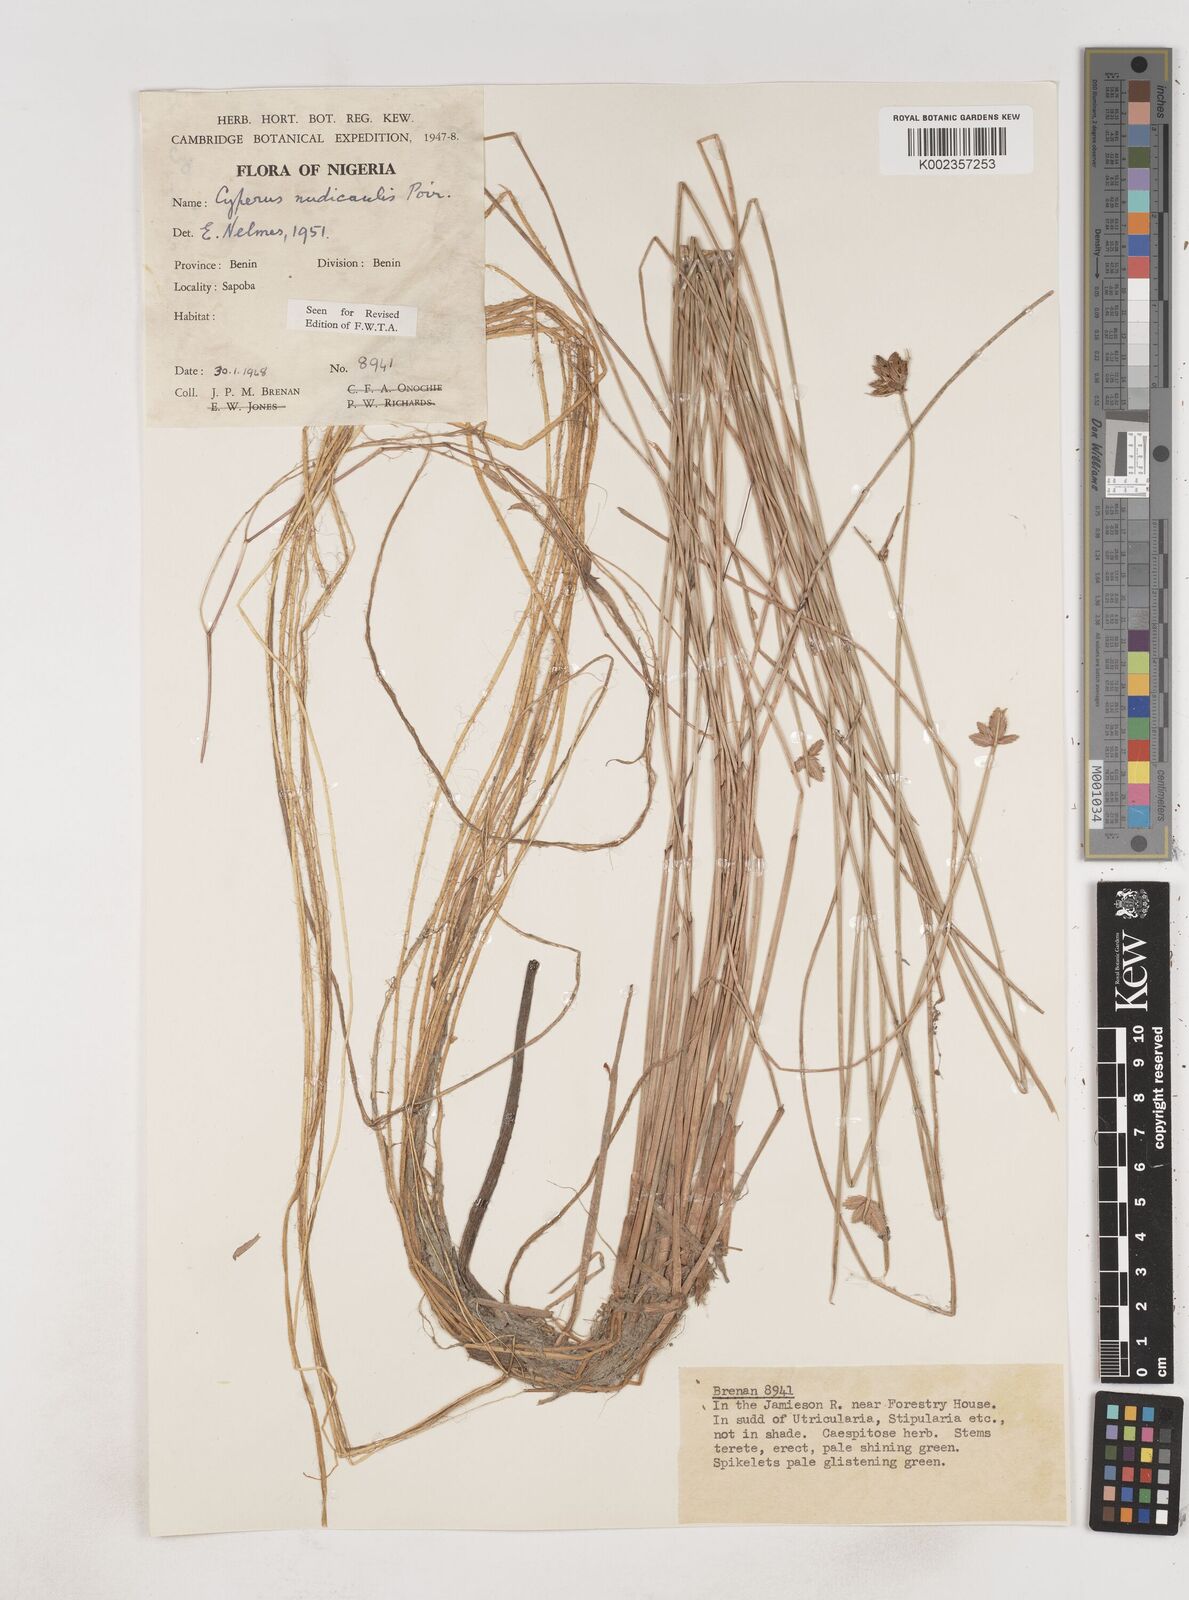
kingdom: Plantae
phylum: Tracheophyta
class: Liliopsida
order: Poales
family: Cyperaceae
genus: Cyperus
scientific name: Cyperus pectinatus
